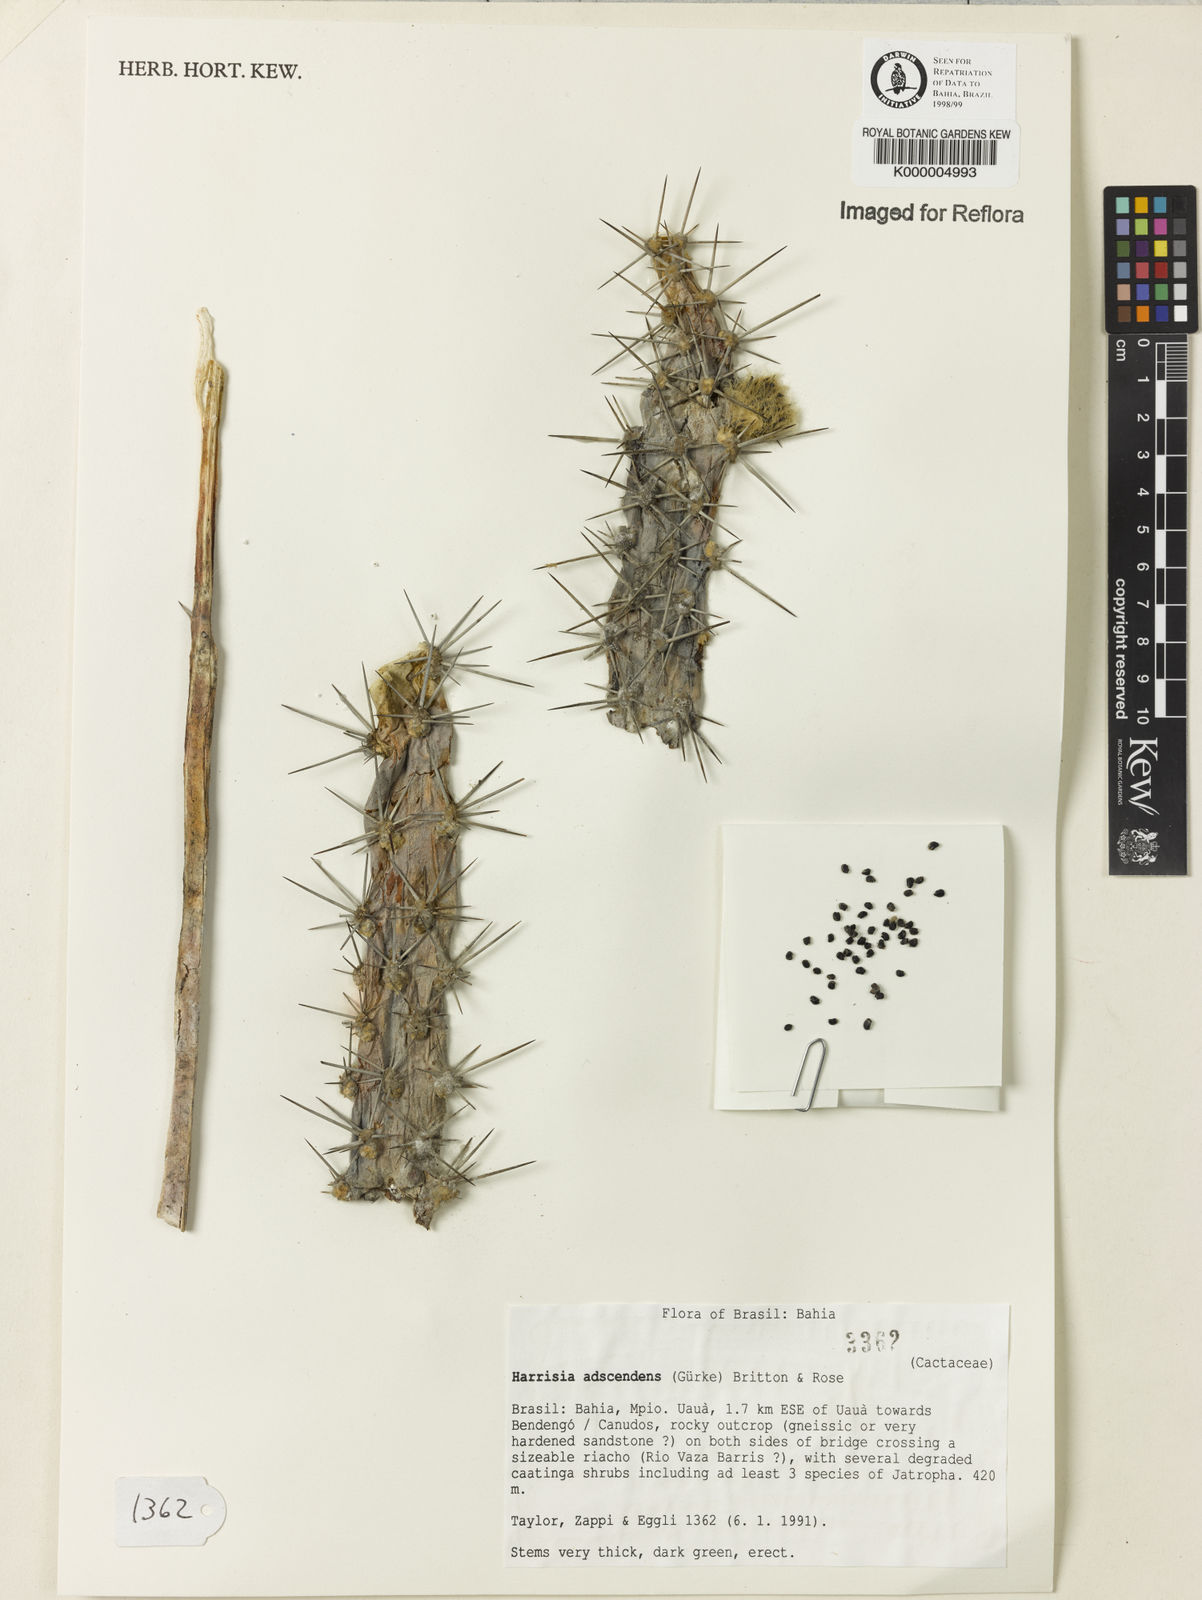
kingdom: Plantae
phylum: Tracheophyta
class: Magnoliopsida
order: Caryophyllales
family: Cactaceae
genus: Harrisia
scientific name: Harrisia adscendens
